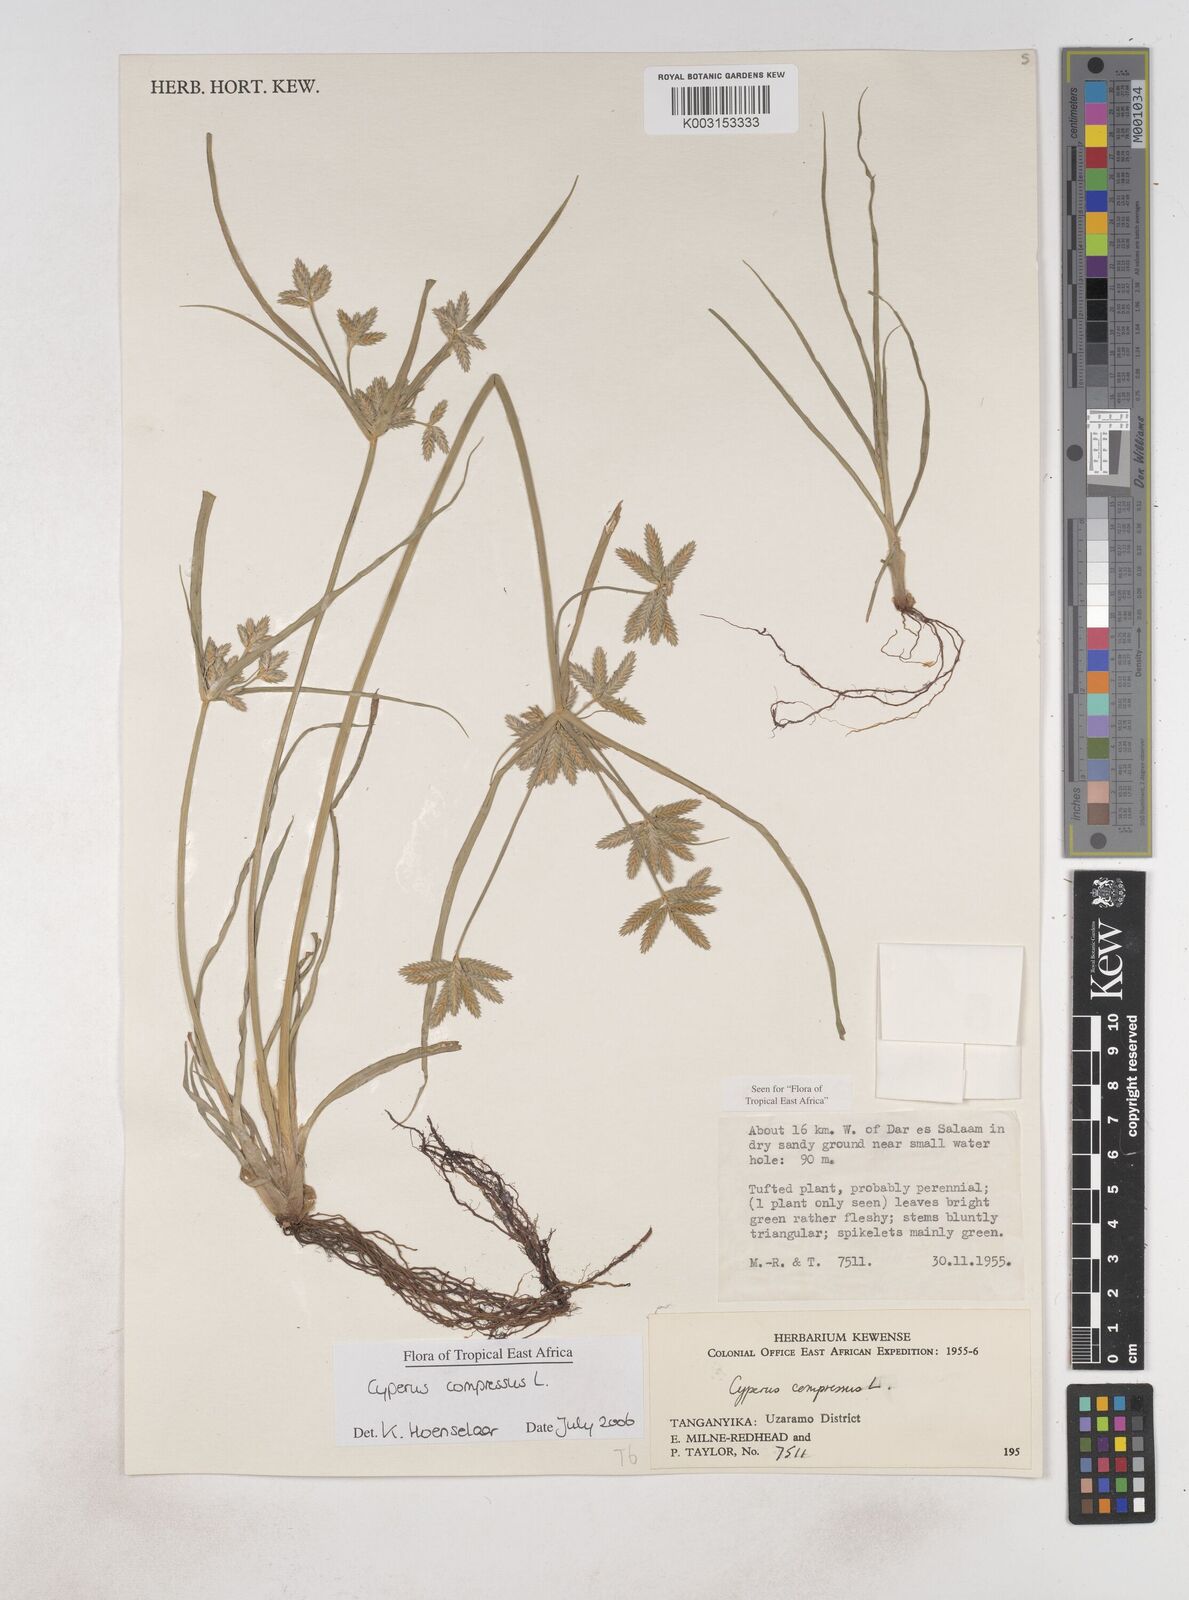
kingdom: Plantae
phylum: Tracheophyta
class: Liliopsida
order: Poales
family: Cyperaceae
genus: Cyperus
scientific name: Cyperus compressus
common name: Poorland flatsedge
